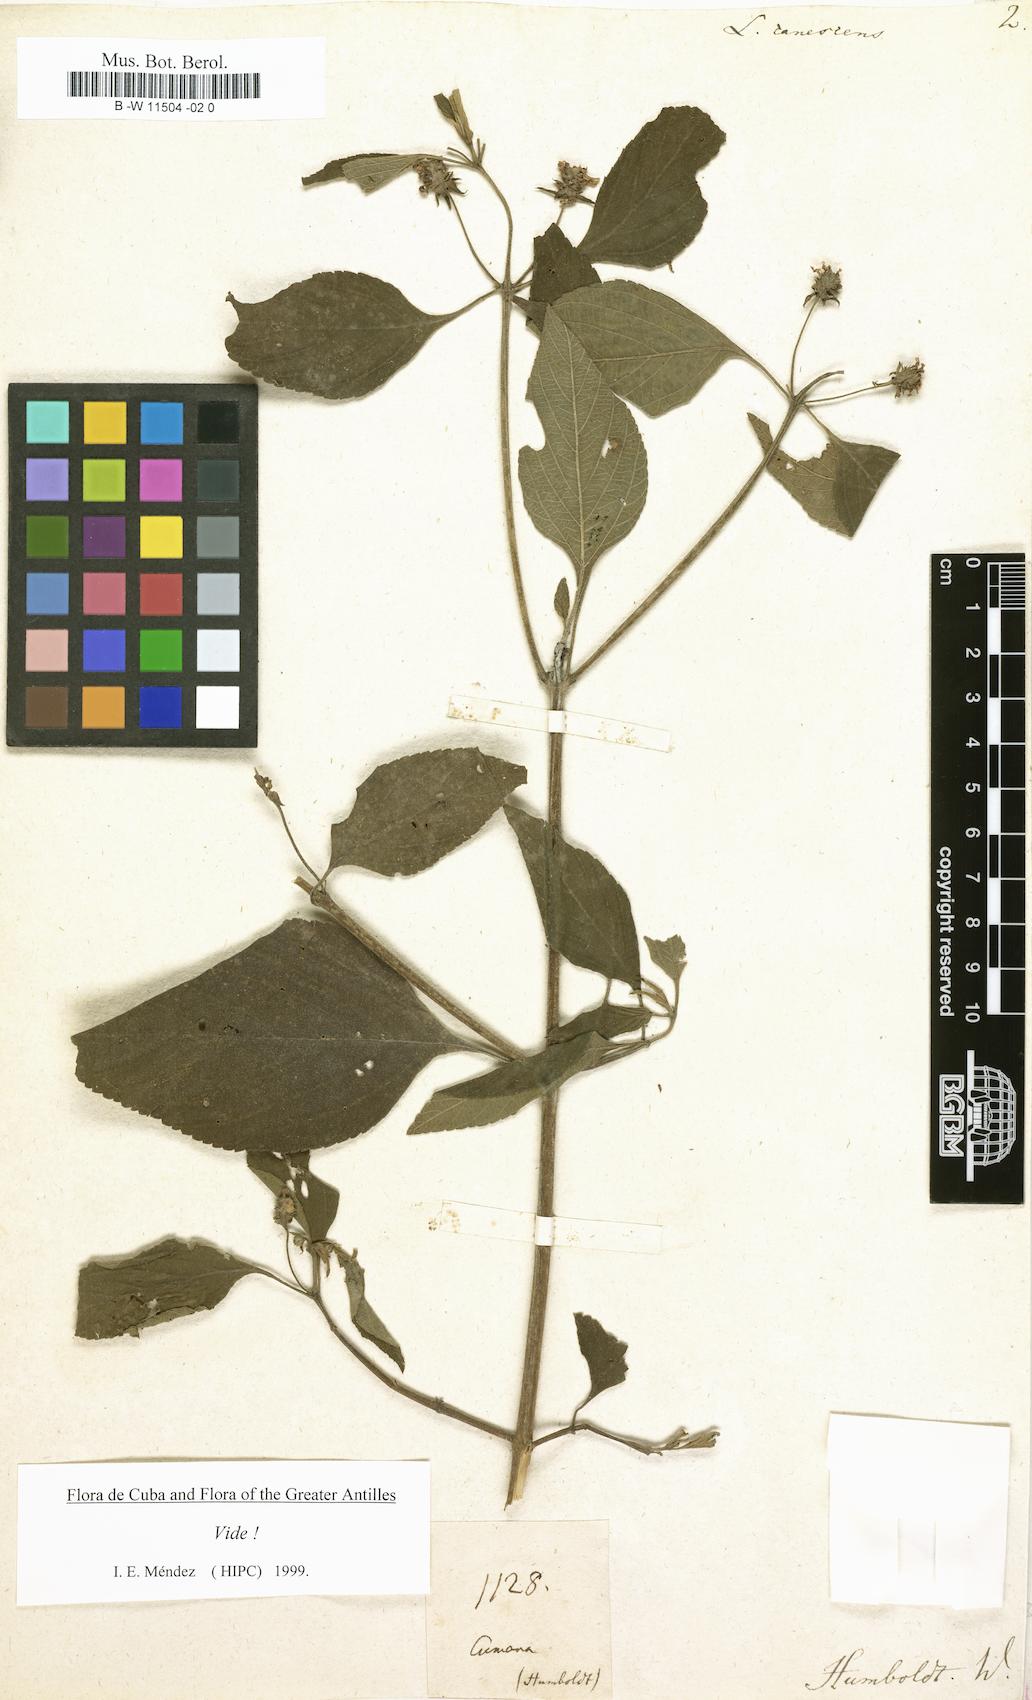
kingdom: Plantae
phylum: Tracheophyta
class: Magnoliopsida
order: Lamiales
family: Verbenaceae
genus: Lantana
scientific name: Lantana canescens
